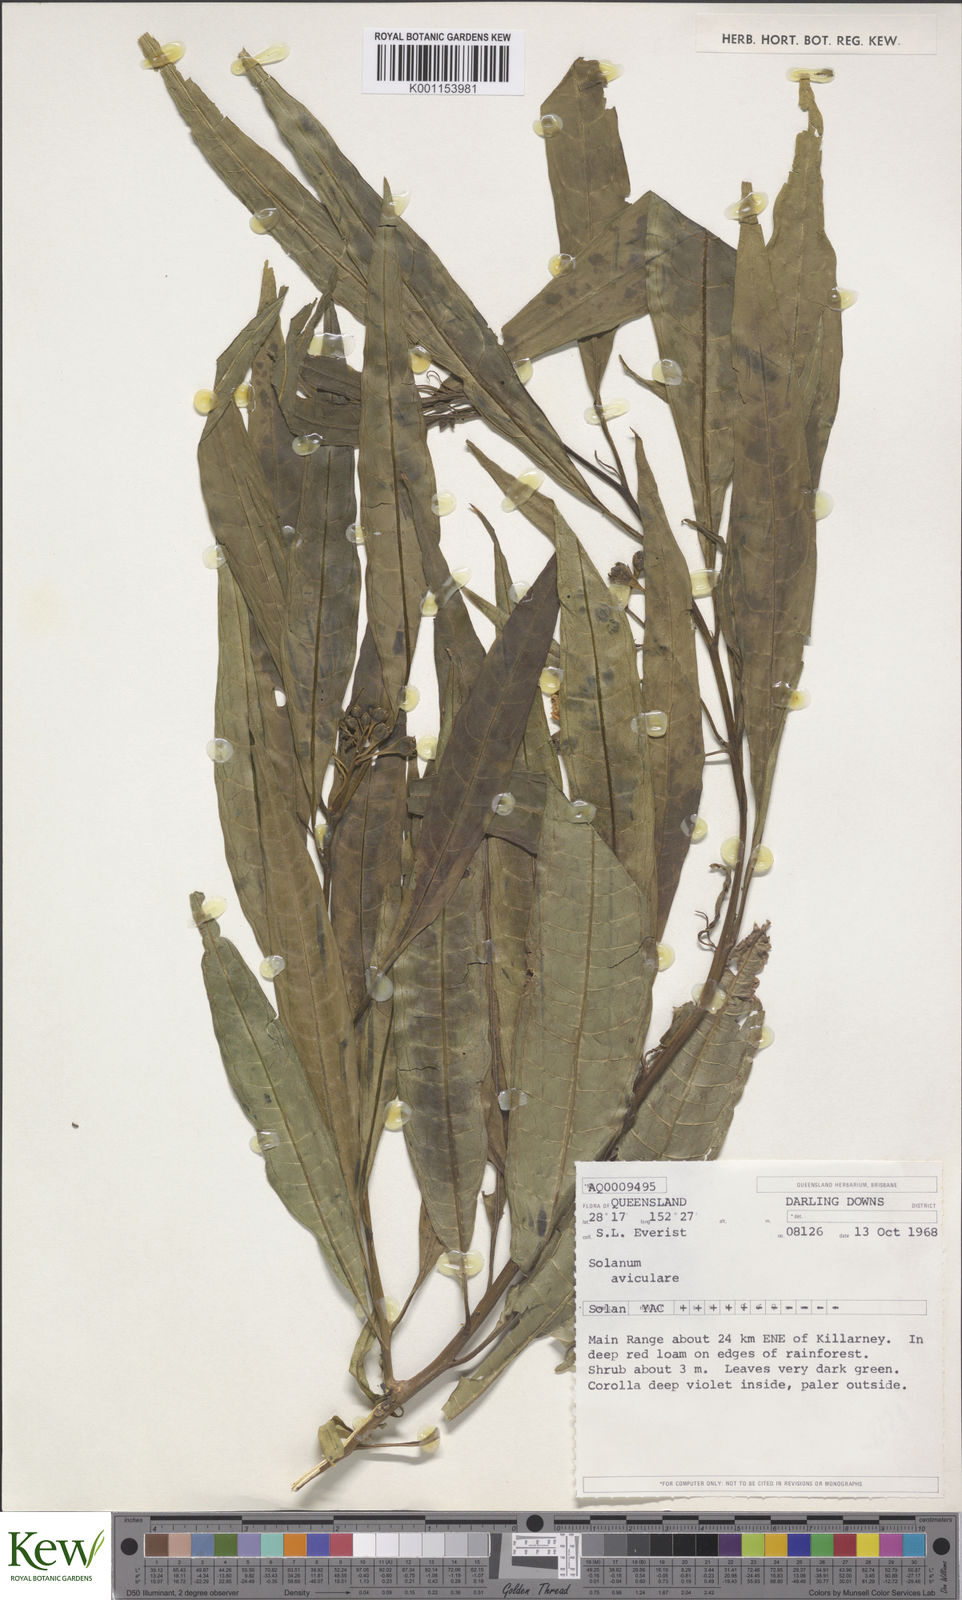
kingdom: Plantae
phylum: Tracheophyta
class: Magnoliopsida
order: Solanales
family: Solanaceae
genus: Solanum
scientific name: Solanum aviculare
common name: New zealand nightshade
